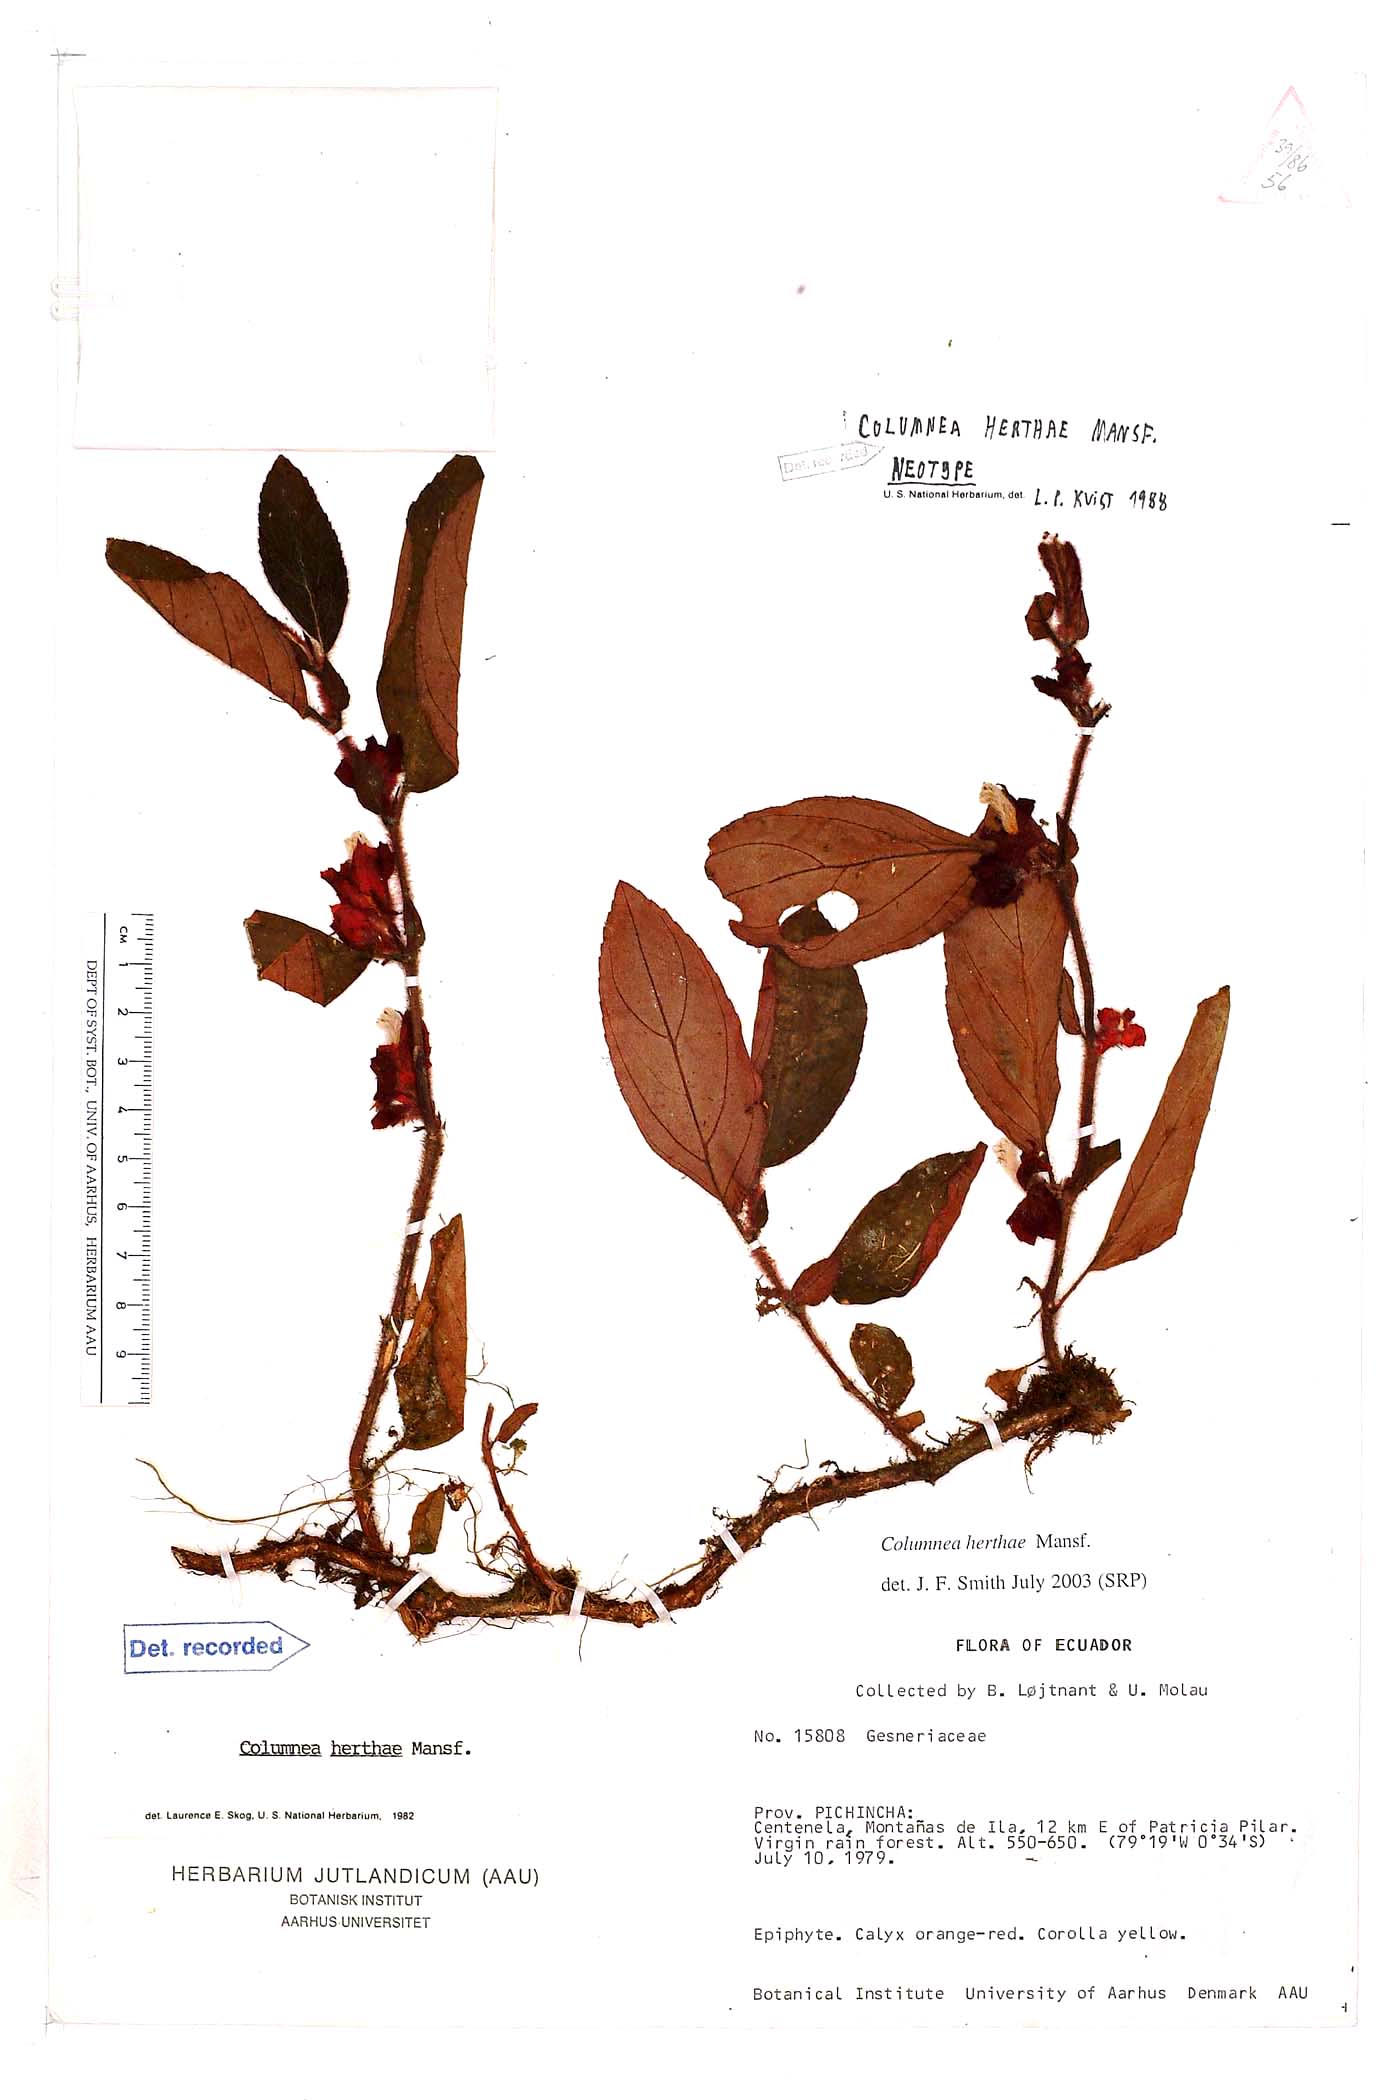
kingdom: Plantae
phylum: Tracheophyta
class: Magnoliopsida
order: Lamiales
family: Gesneriaceae
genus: Columnea
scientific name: Columnea herthae
